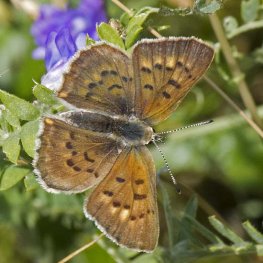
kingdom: Animalia
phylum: Arthropoda
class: Insecta
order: Lepidoptera
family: Lycaenidae
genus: Epidemia
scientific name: Epidemia dorcas
